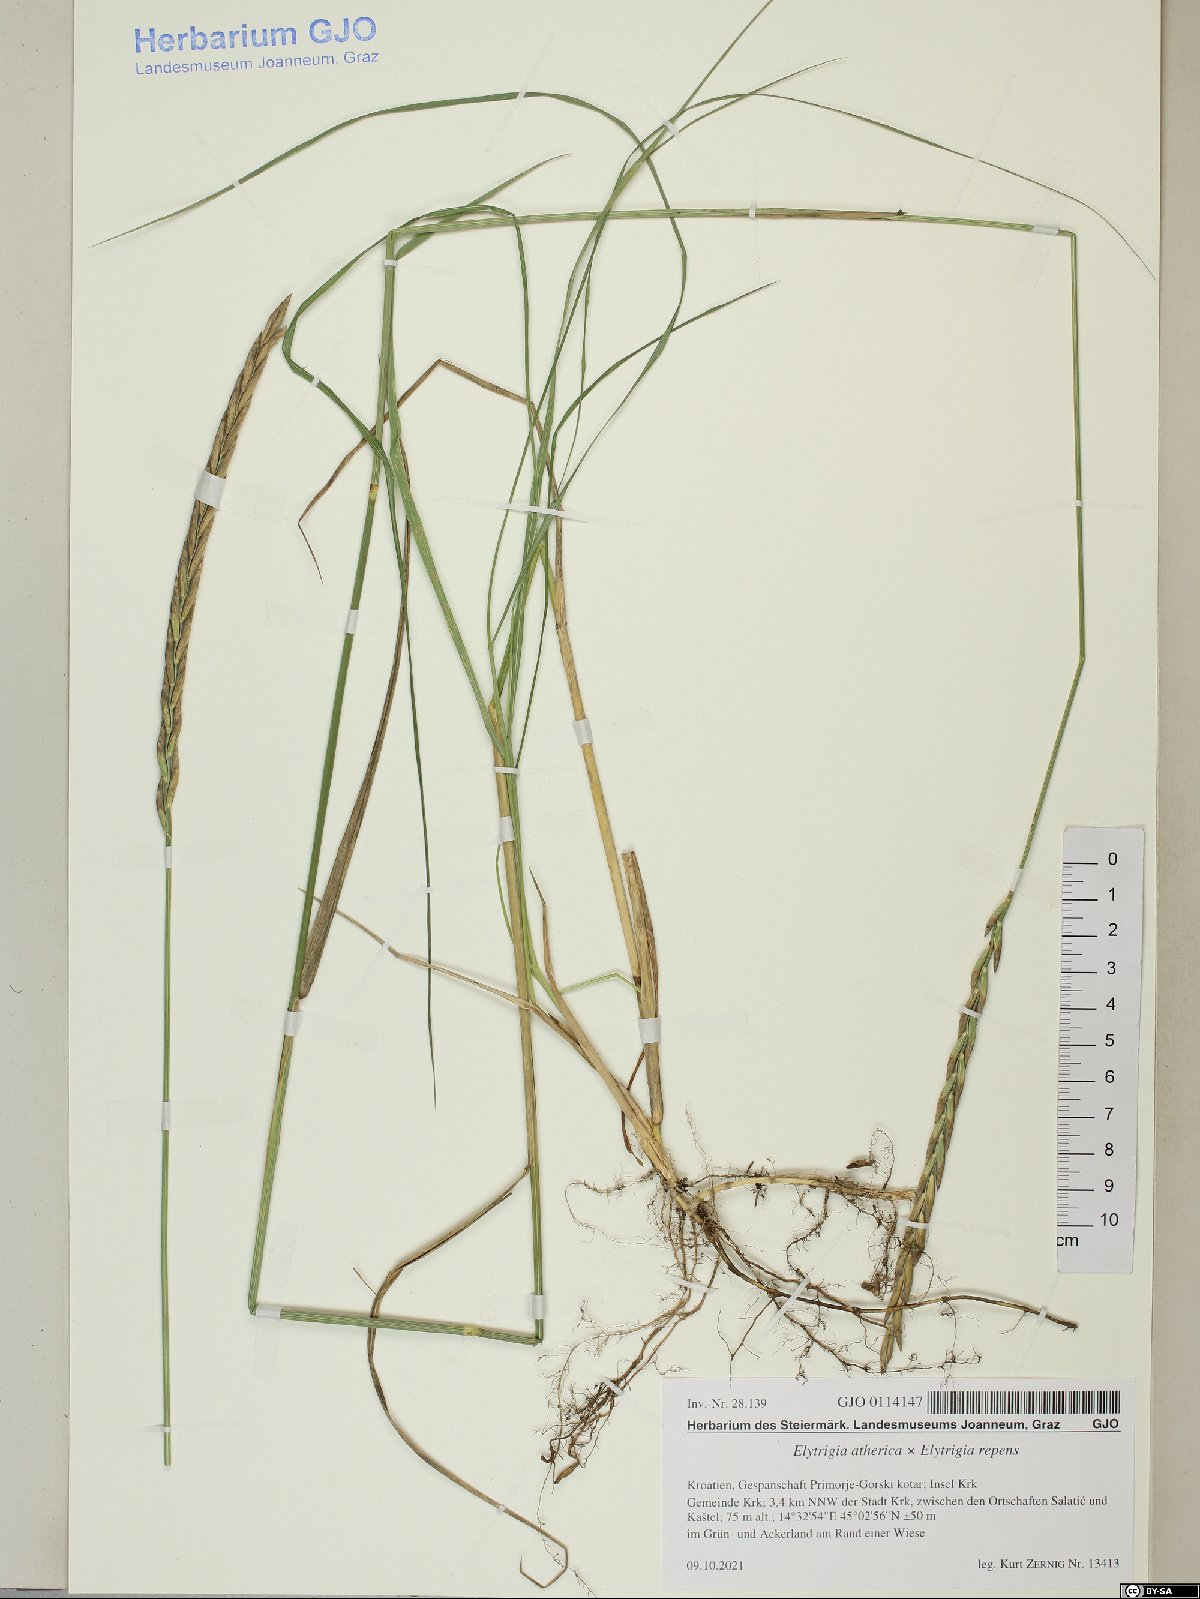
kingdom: Plantae
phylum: Tracheophyta
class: Liliopsida
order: Poales
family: Poaceae
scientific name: Poaceae
